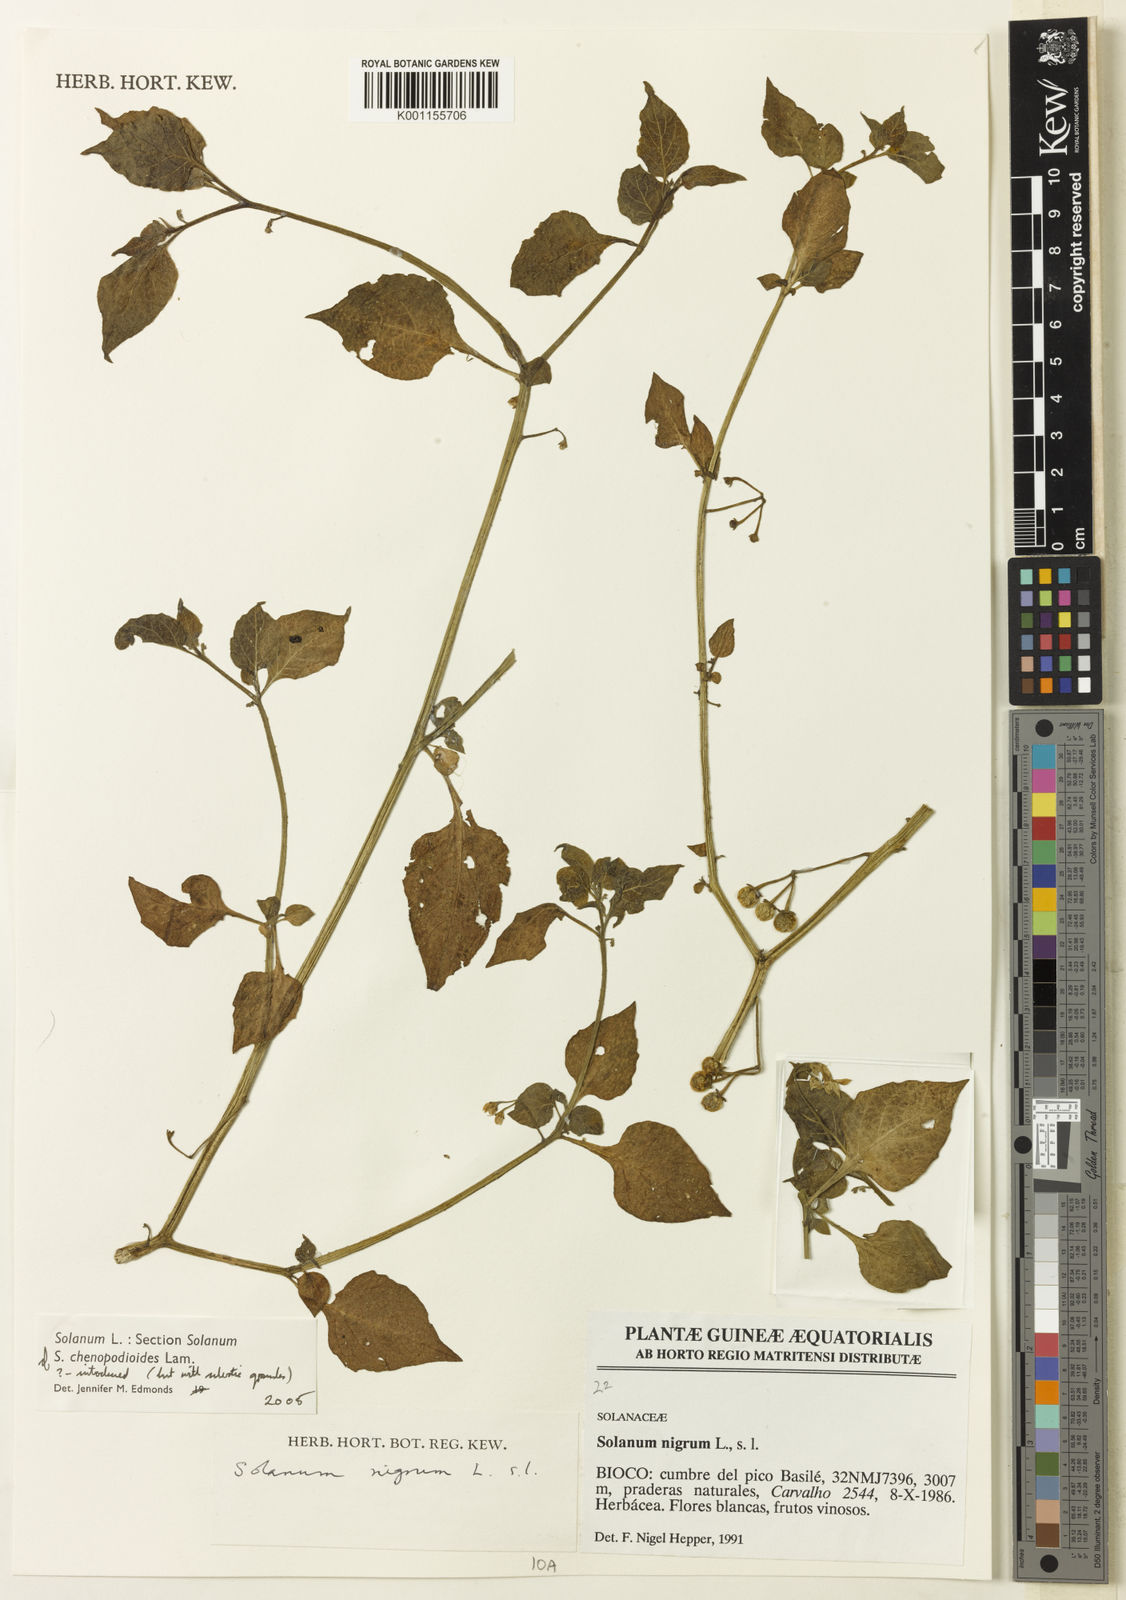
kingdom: Plantae
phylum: Tracheophyta
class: Magnoliopsida
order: Solanales
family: Solanaceae
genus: Solanum
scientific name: Solanum chenopodioides
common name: Tall nightshade
